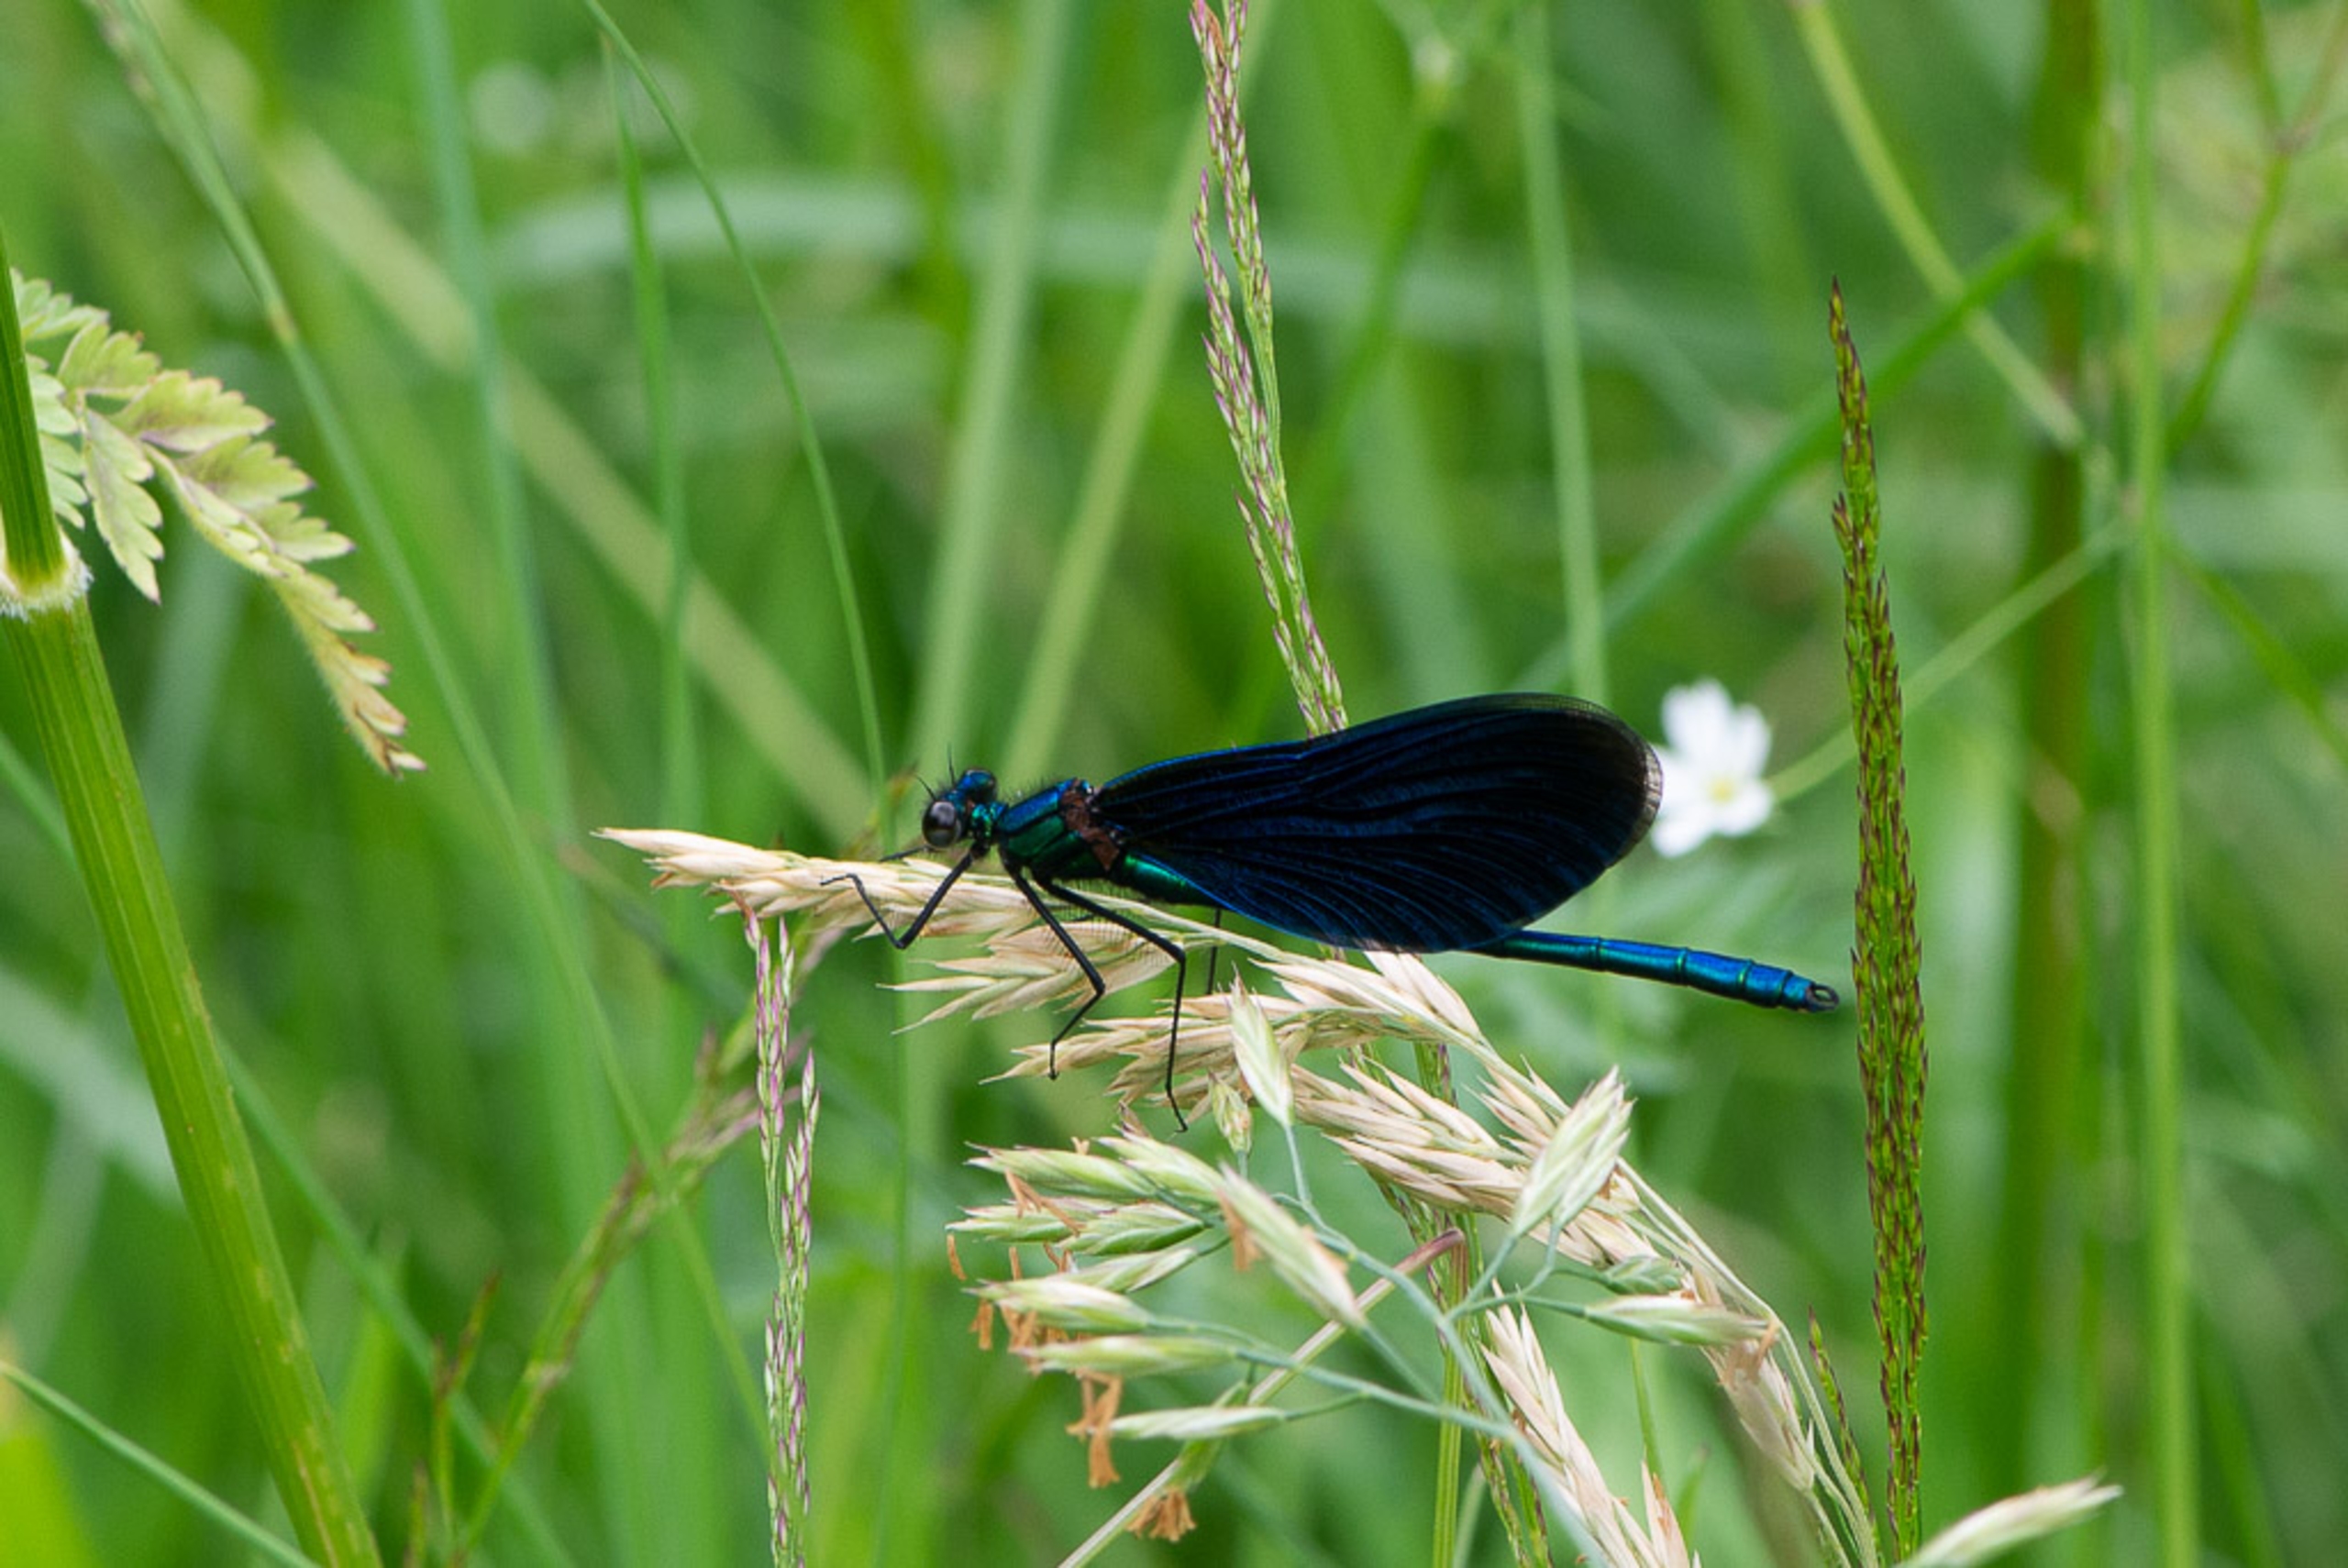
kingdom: Animalia
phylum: Arthropoda
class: Insecta
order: Odonata
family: Calopterygidae
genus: Calopteryx
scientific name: Calopteryx virgo
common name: Blåvinget pragtvandnymfe
